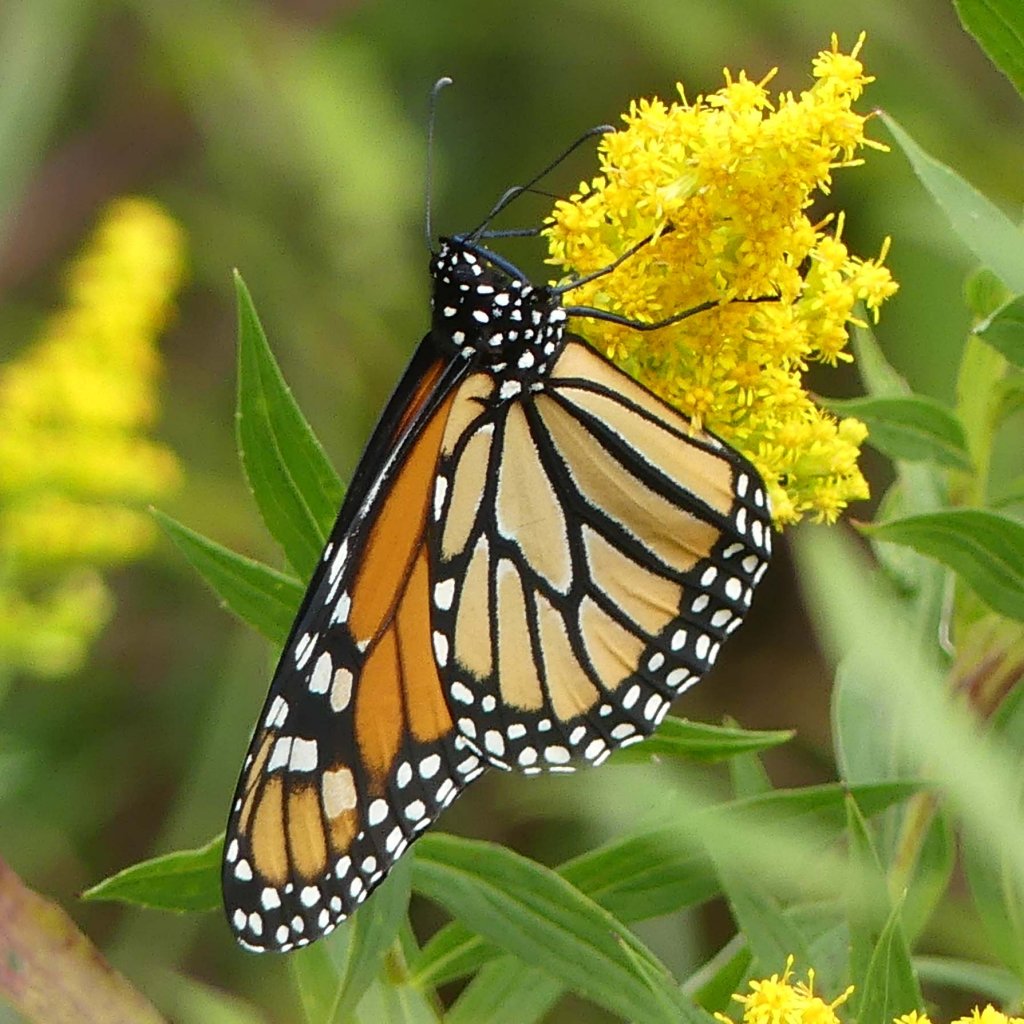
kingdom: Animalia
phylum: Arthropoda
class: Insecta
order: Lepidoptera
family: Nymphalidae
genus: Danaus
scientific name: Danaus plexippus
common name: Monarch
